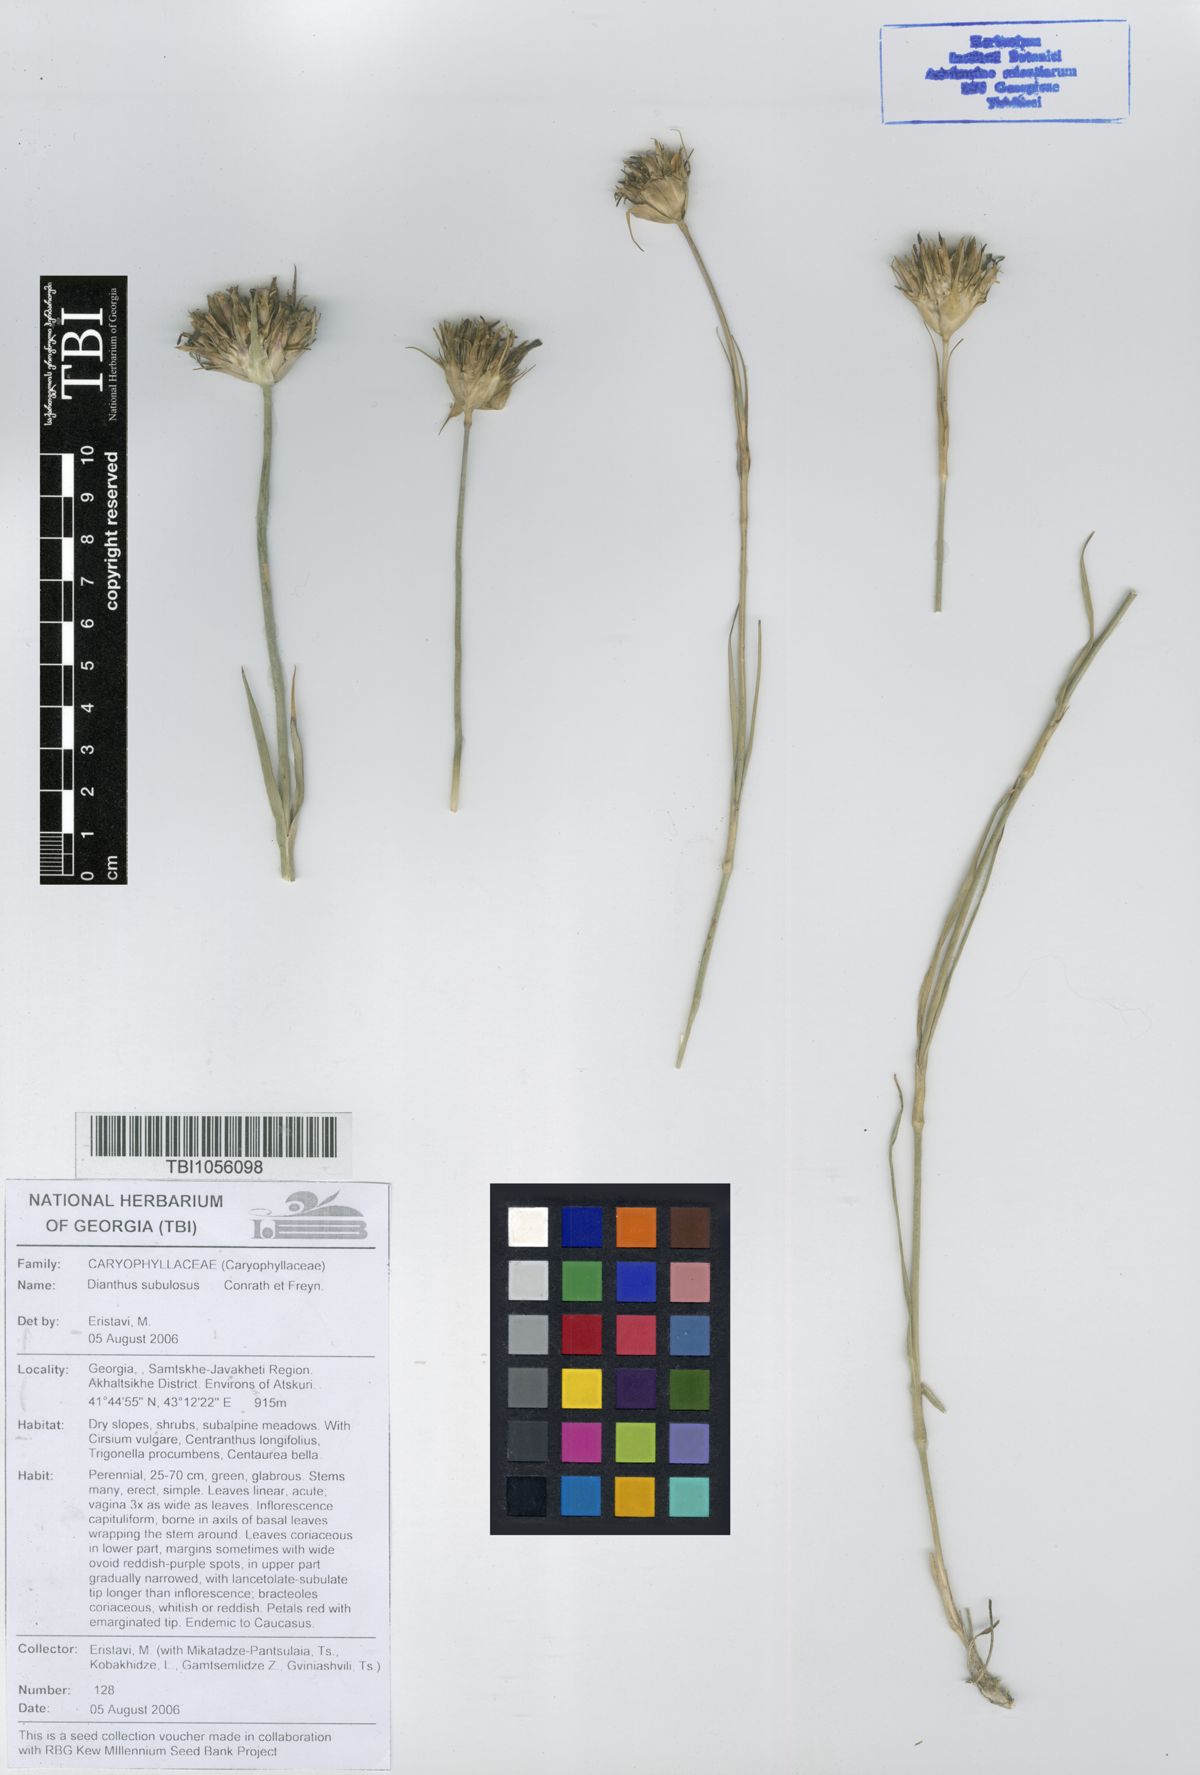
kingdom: Plantae
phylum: Tracheophyta
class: Magnoliopsida
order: Caryophyllales
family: Caryophyllaceae
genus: Dianthus
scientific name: Dianthus subulosus
